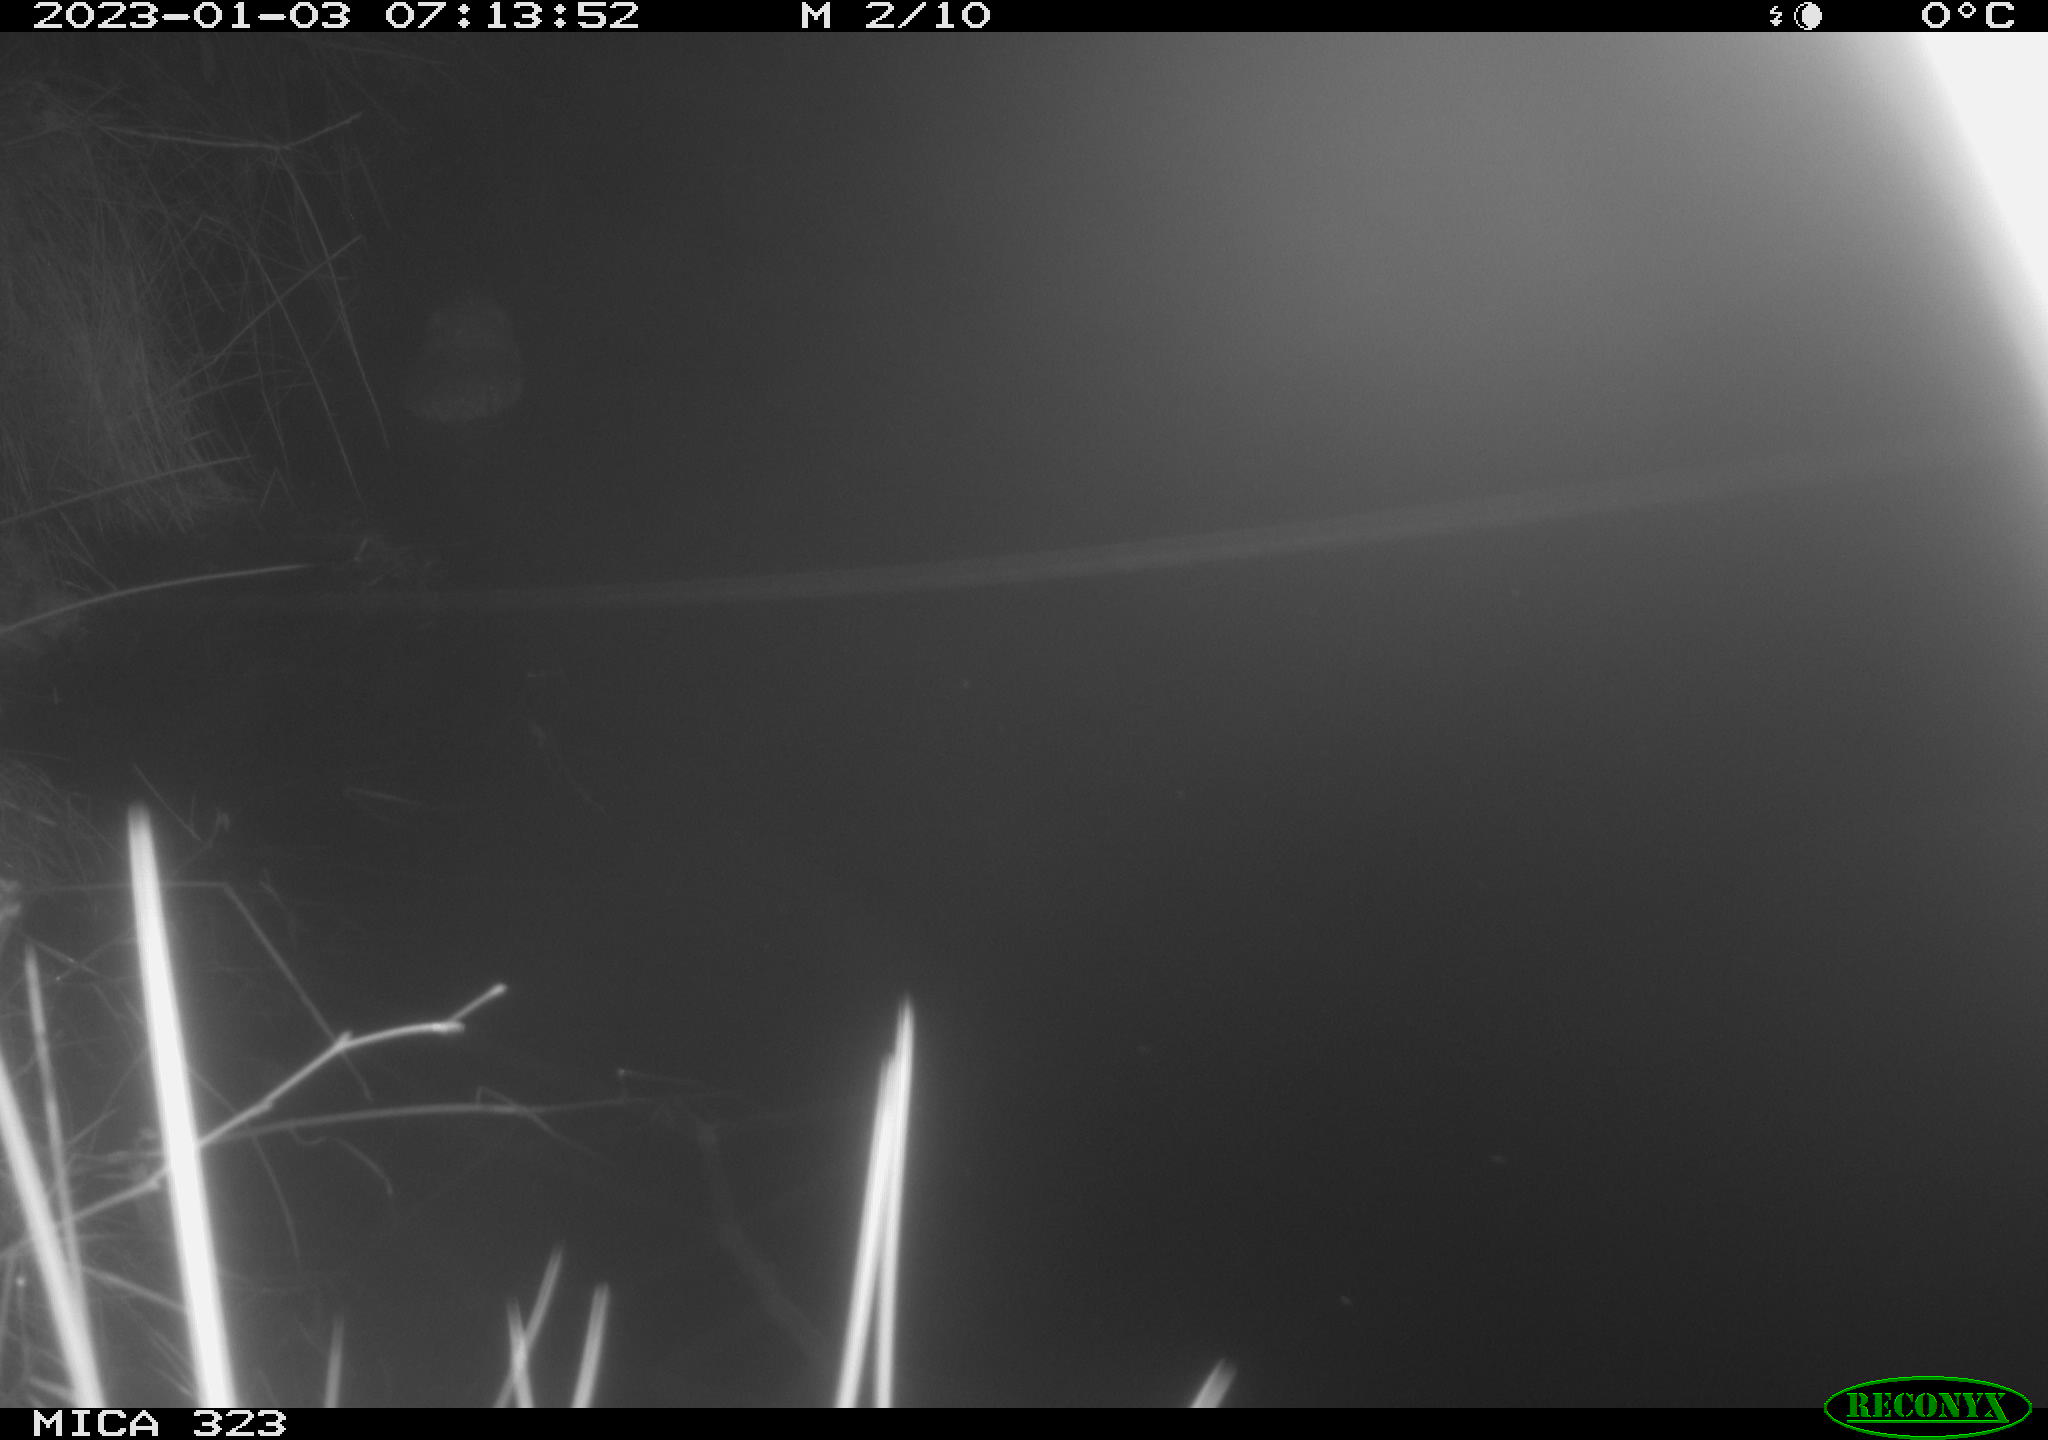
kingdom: Animalia
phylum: Chordata
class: Mammalia
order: Rodentia
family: Cricetidae
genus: Ondatra
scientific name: Ondatra zibethicus
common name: Muskrat
